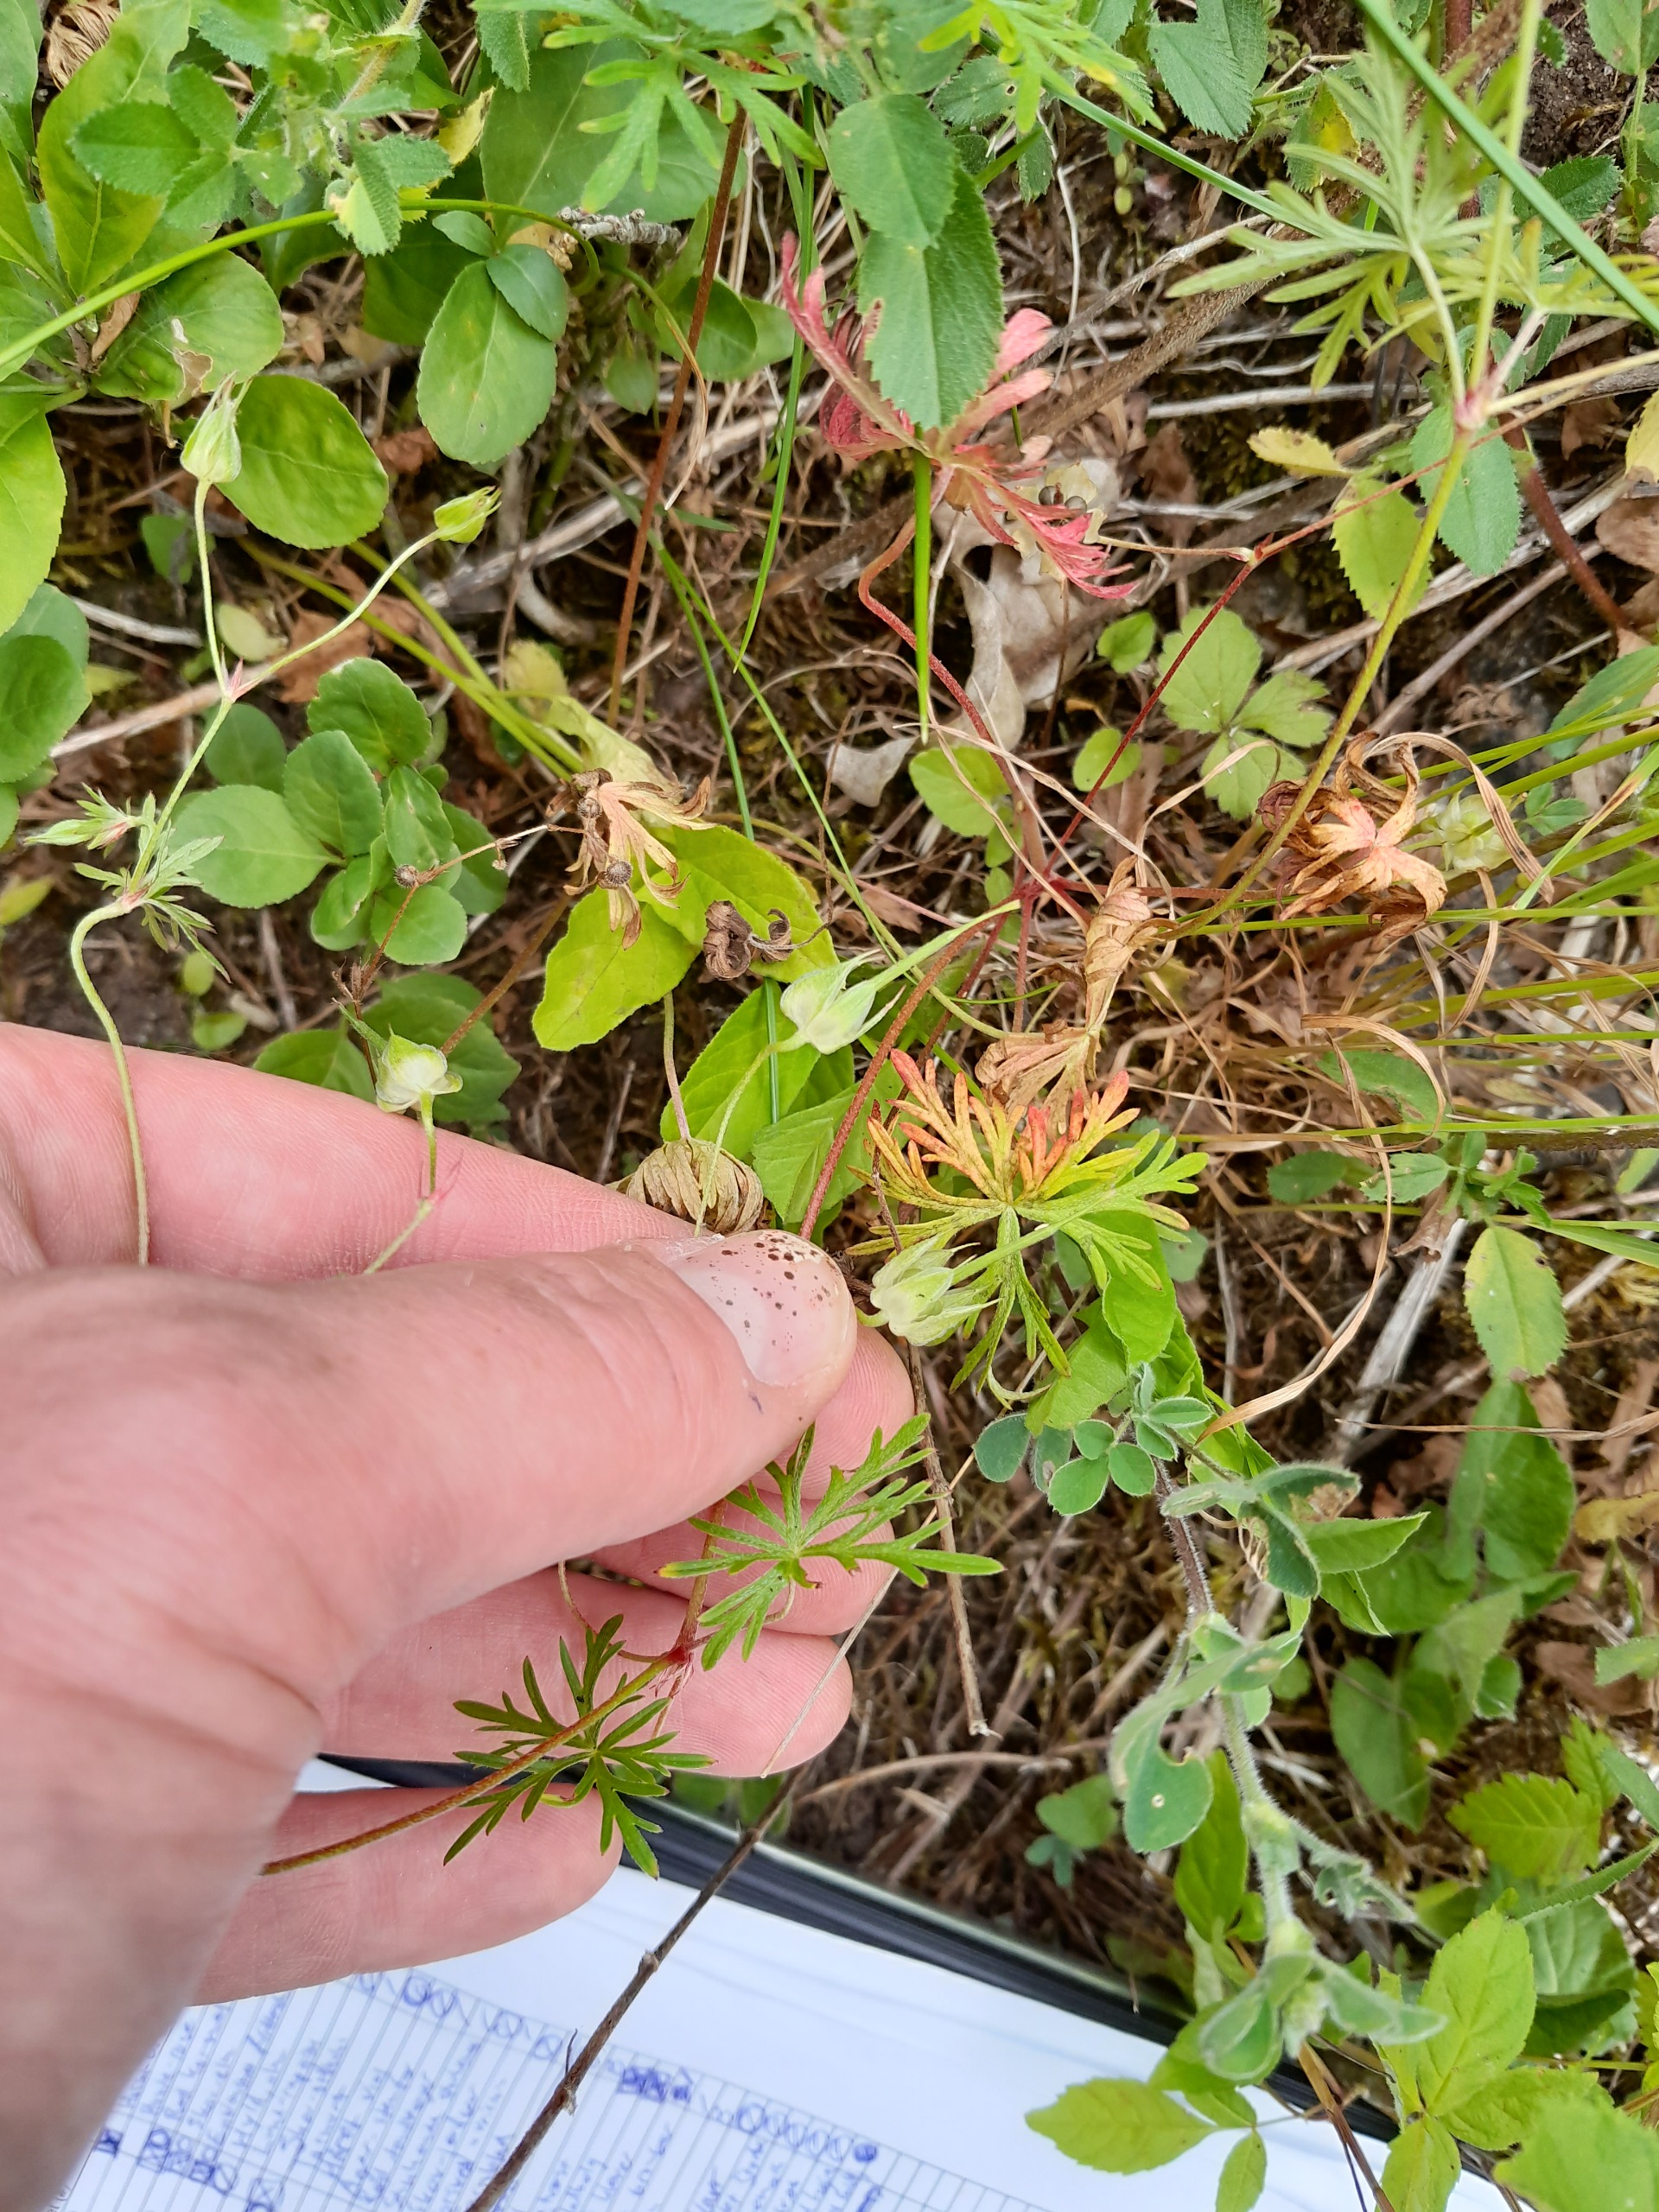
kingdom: Plantae
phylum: Tracheophyta
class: Magnoliopsida
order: Geraniales
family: Geraniaceae
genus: Geranium
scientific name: Geranium columbinum
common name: Storbægret storkenæb
